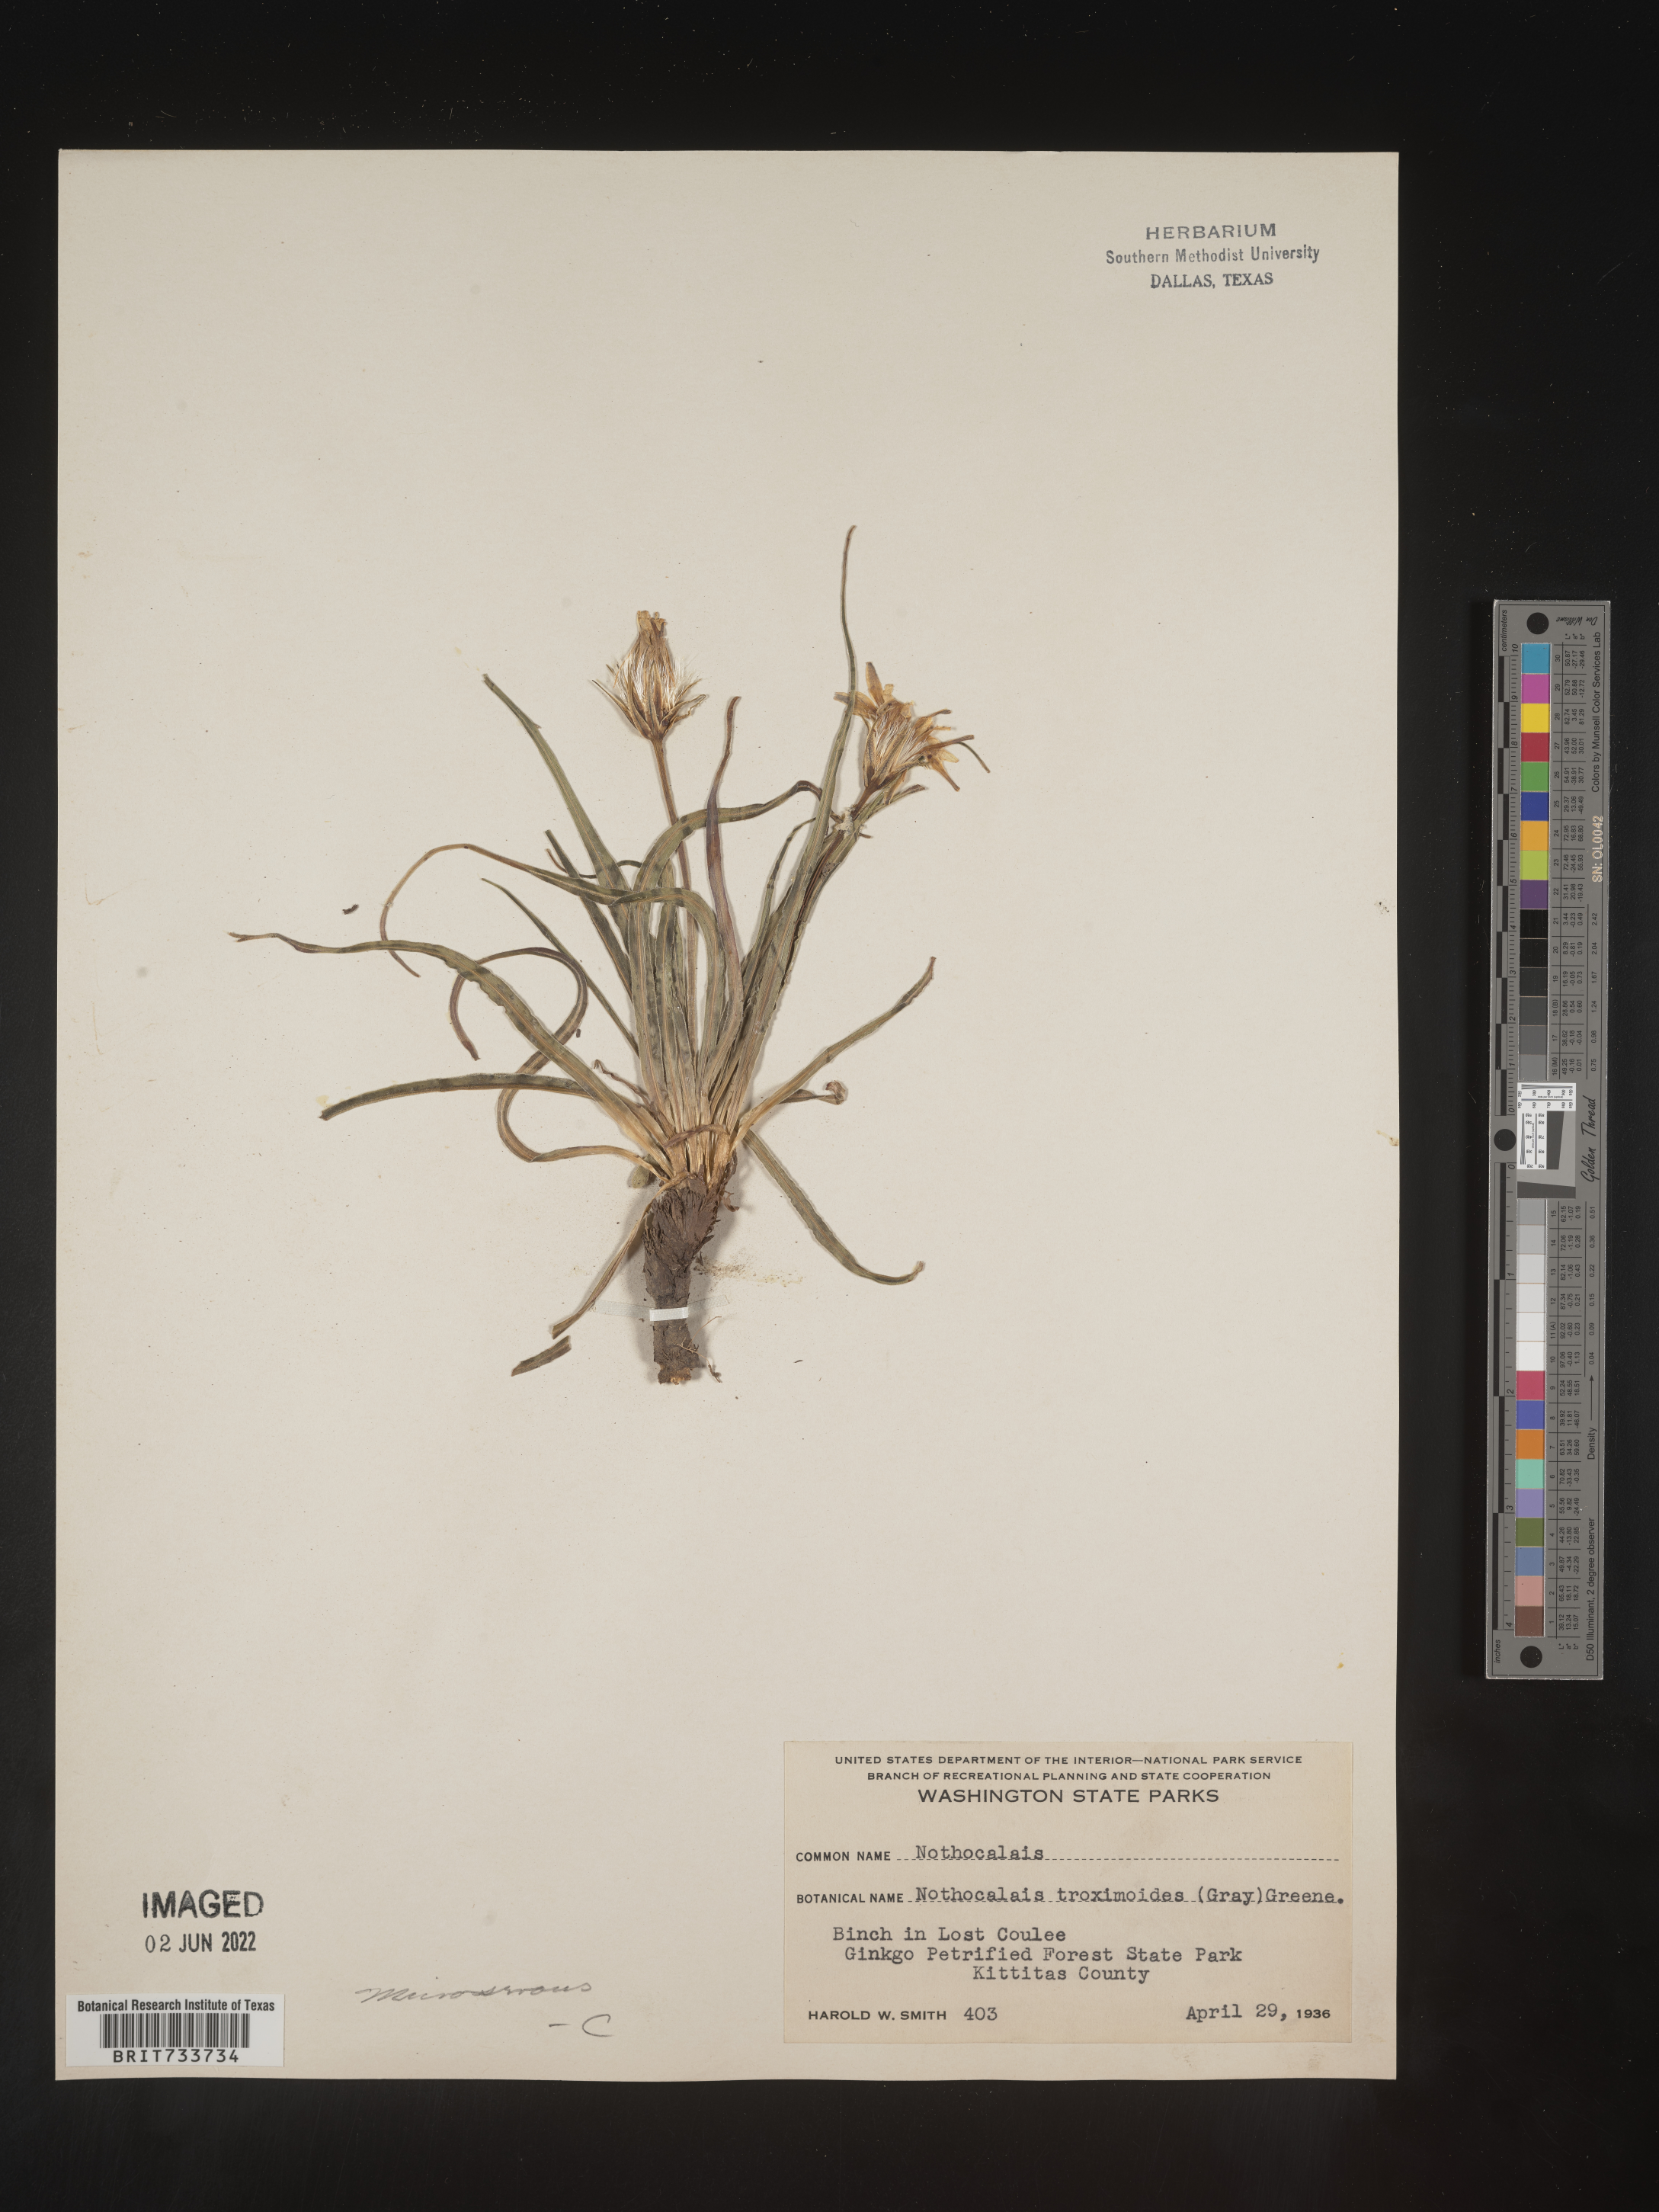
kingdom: Plantae
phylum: Tracheophyta
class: Magnoliopsida
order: Asterales
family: Asteraceae
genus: Microseris
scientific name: Microseris
